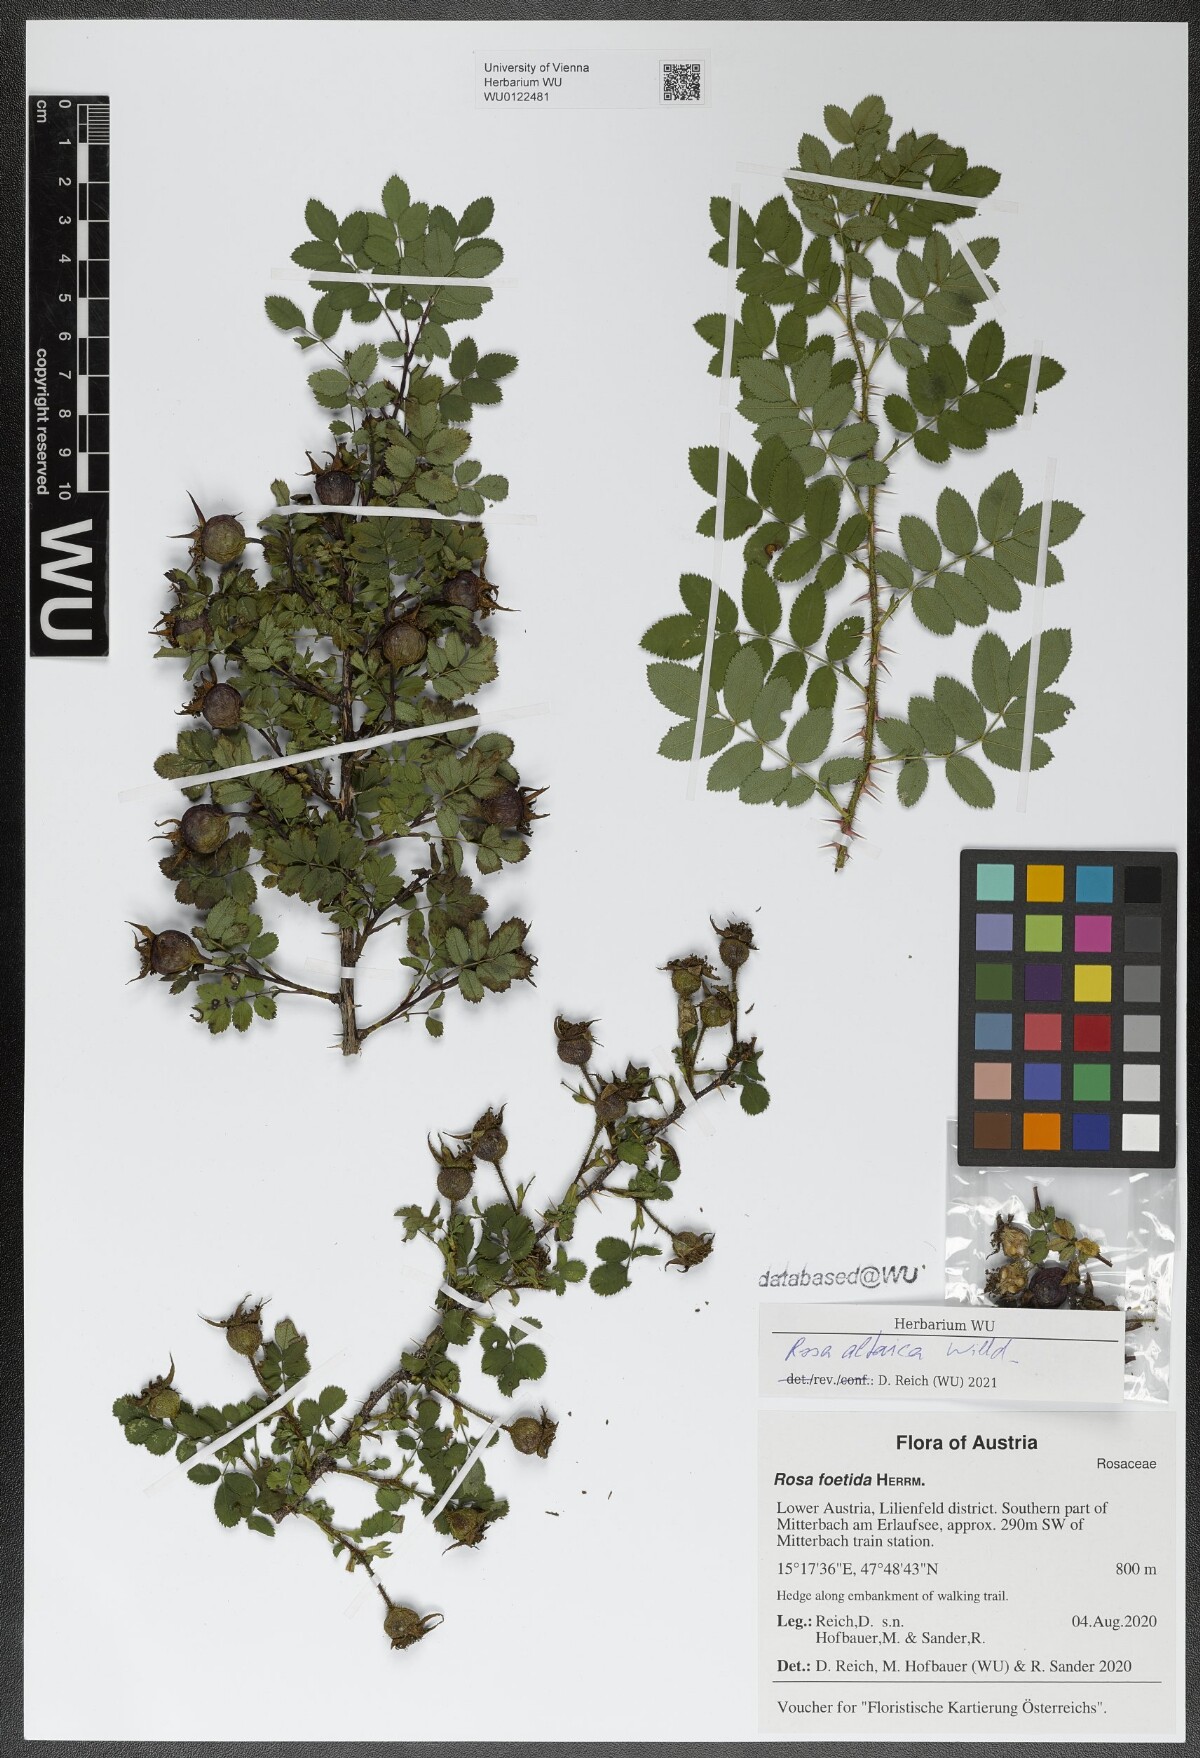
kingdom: Plantae
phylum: Tracheophyta
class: Magnoliopsida
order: Rosales
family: Rosaceae
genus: Rosa
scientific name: Rosa spinosissima
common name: Burnet rose
